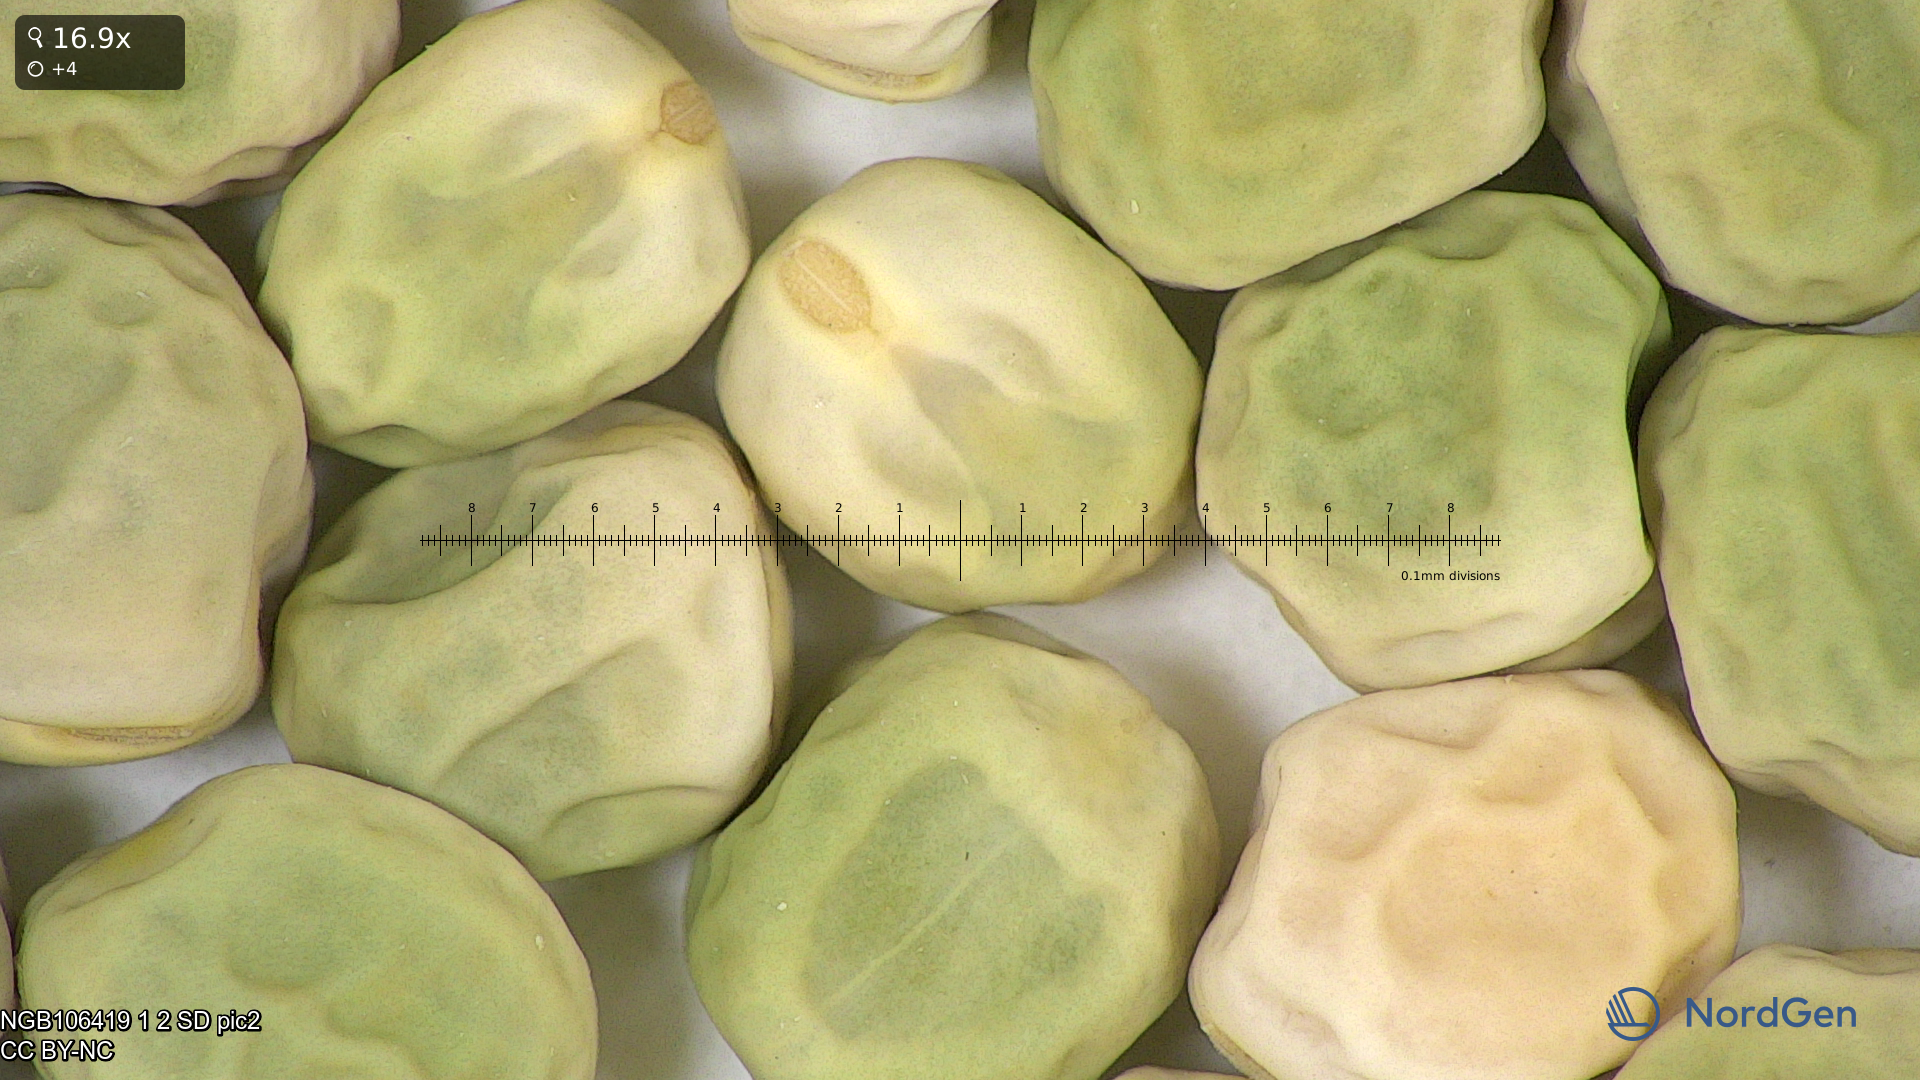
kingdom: Plantae
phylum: Tracheophyta
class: Magnoliopsida
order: Fabales
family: Fabaceae
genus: Lathyrus
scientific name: Lathyrus oleraceus
